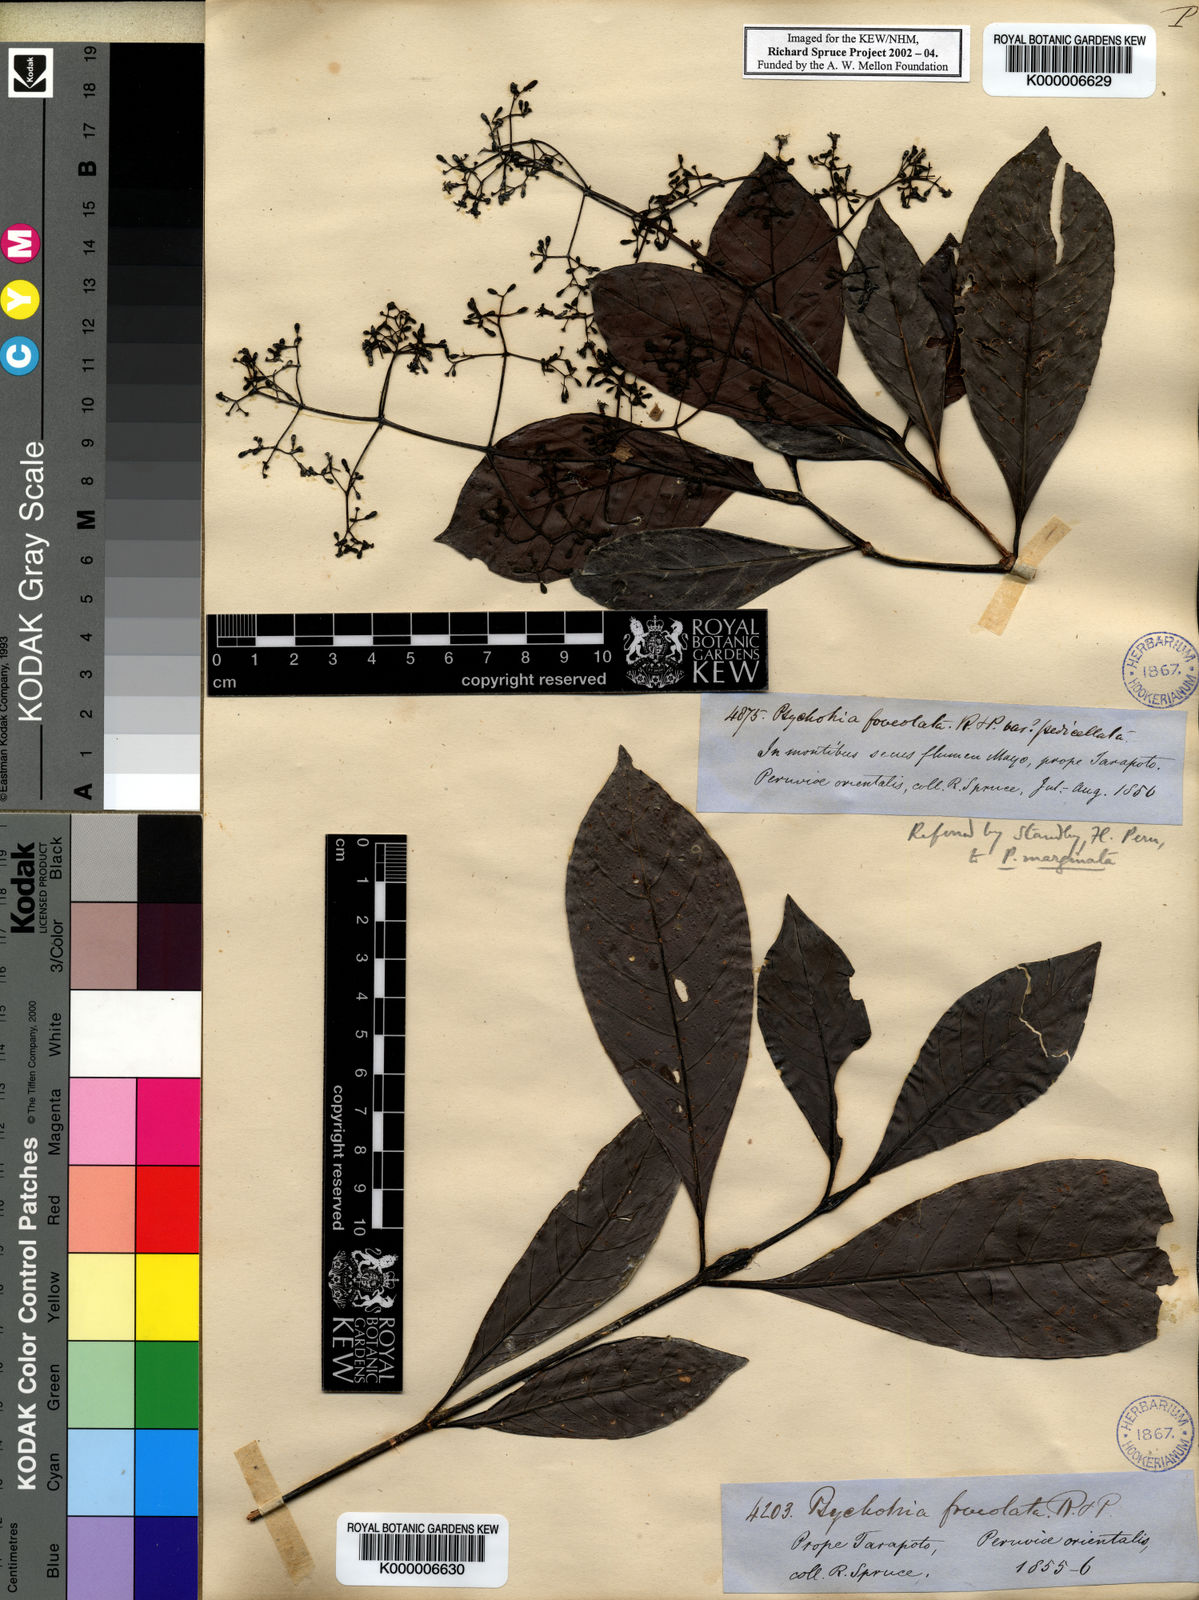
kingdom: Plantae
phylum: Tracheophyta
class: Magnoliopsida
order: Gentianales
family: Rubiaceae
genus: Psychotria
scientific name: Psychotria marginata
